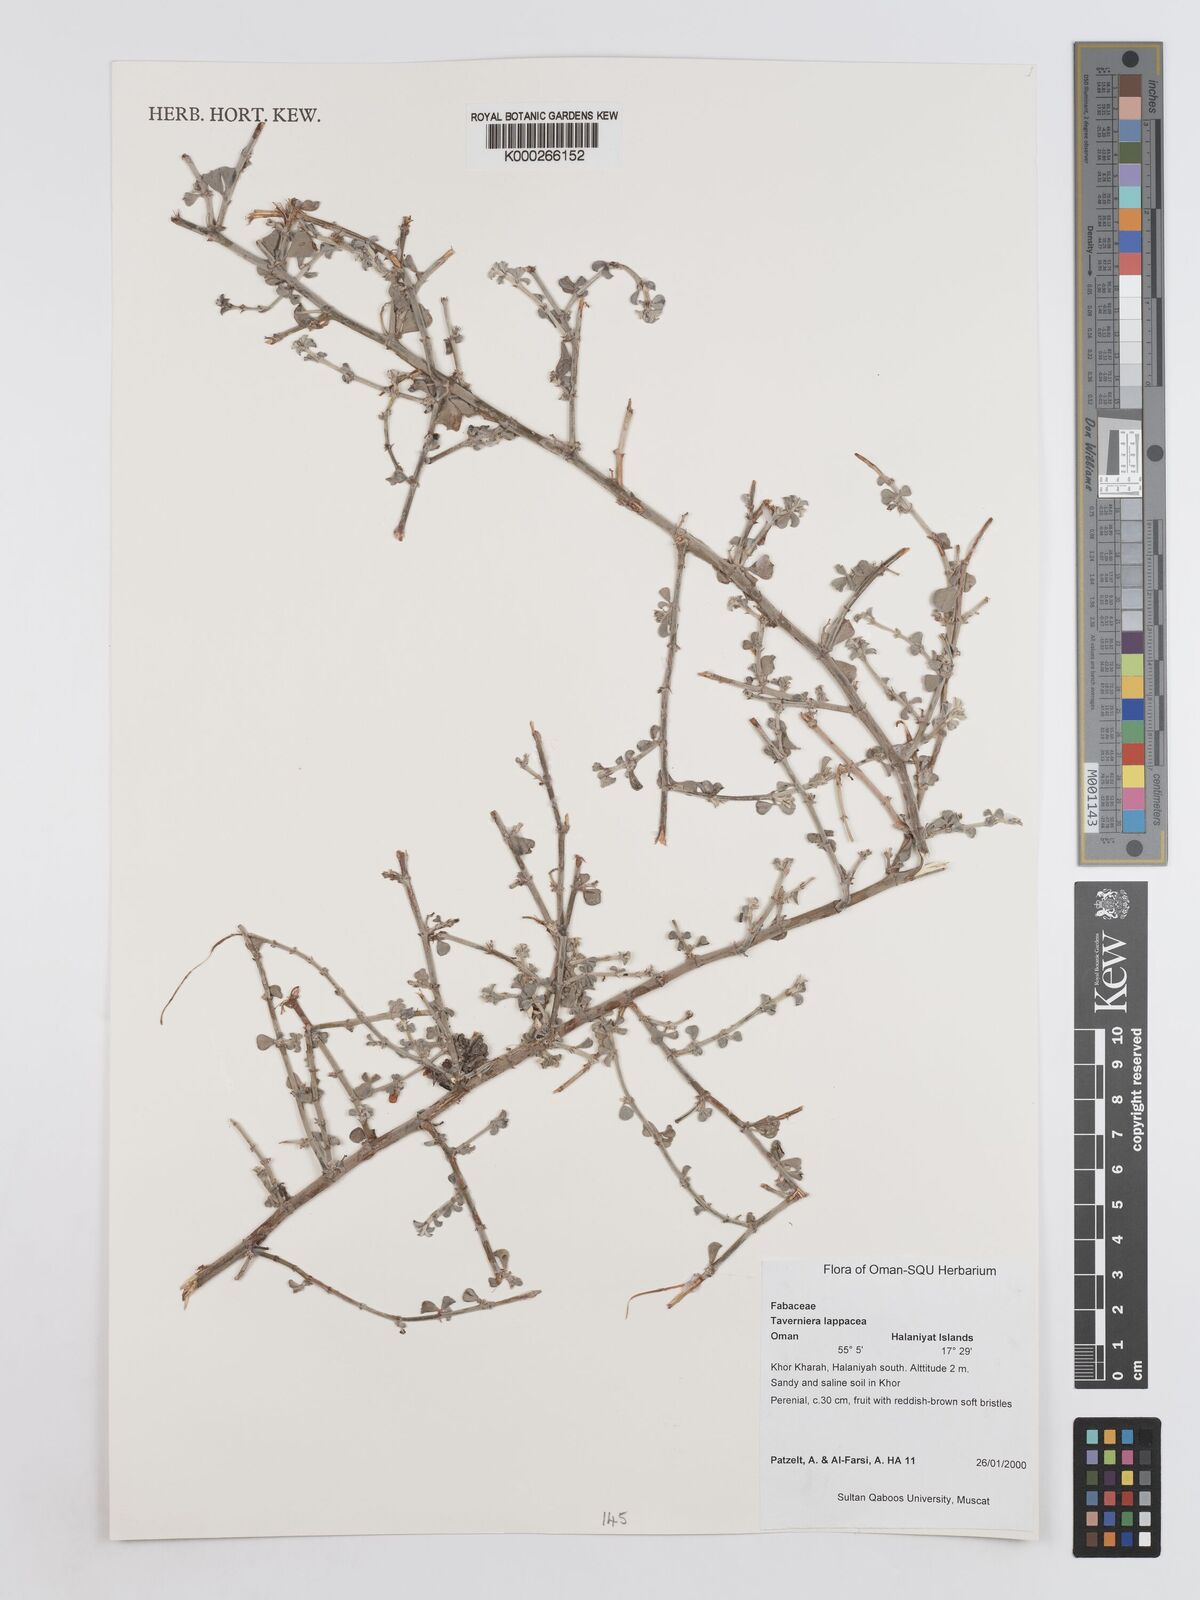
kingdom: Plantae
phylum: Tracheophyta
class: Magnoliopsida
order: Fabales
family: Fabaceae
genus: Taverniera
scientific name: Taverniera lappacea
